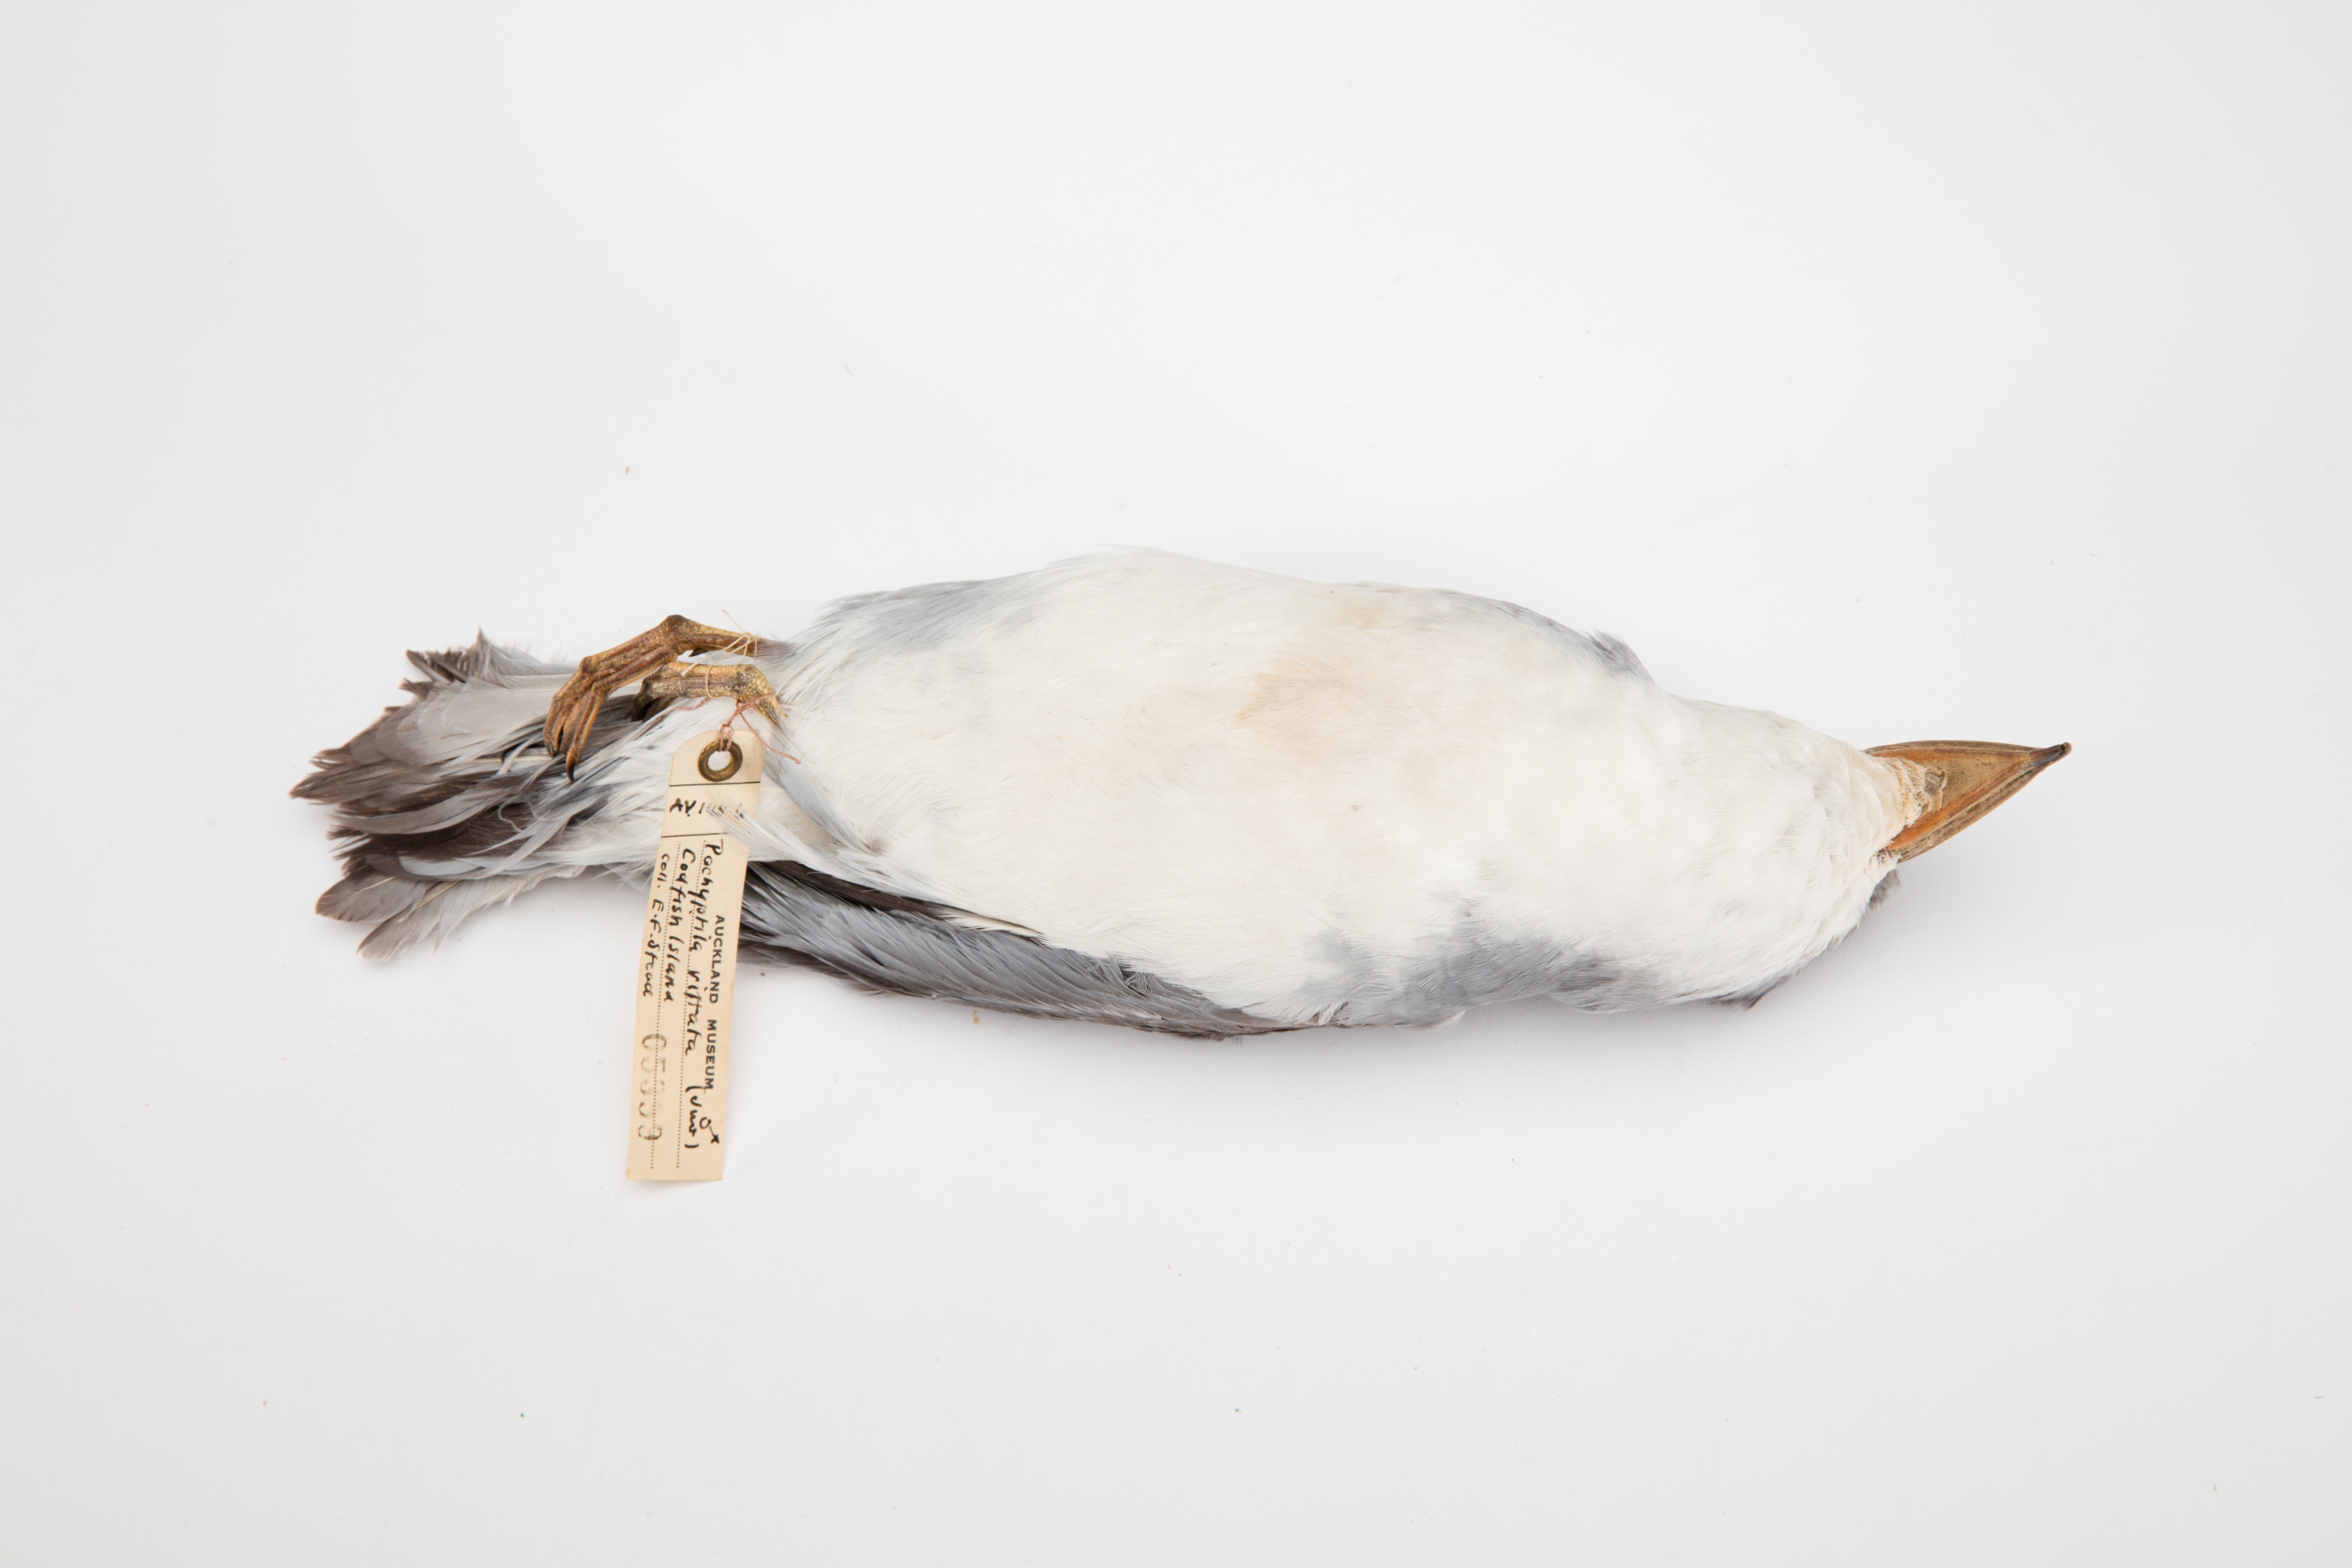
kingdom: Animalia
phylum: Chordata
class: Aves
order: Procellariiformes
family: Procellariidae
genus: Pachyptila
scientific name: Pachyptila vittata
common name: Broad-billed prion
